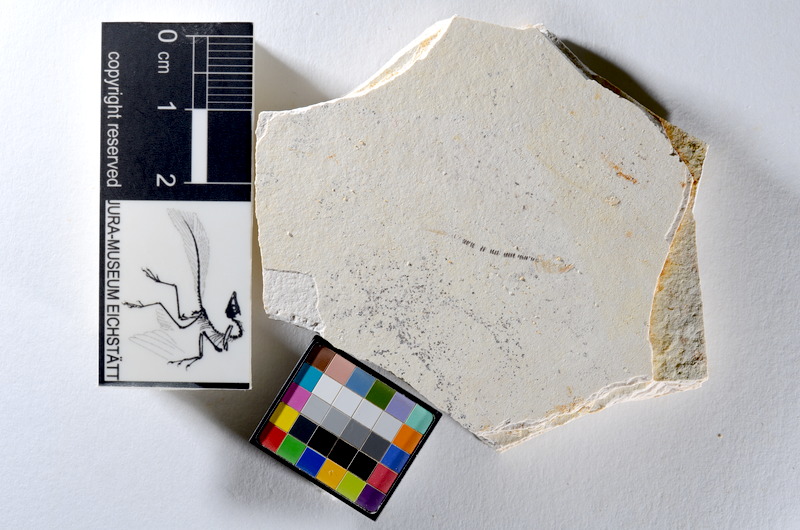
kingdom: Animalia
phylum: Chordata
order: Salmoniformes
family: Orthogonikleithridae
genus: Orthogonikleithrus
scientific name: Orthogonikleithrus hoelli
